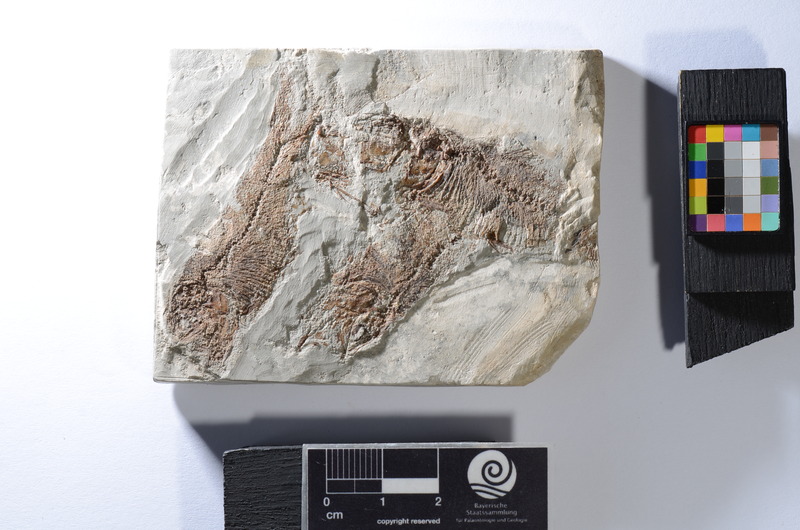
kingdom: Animalia
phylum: Chordata
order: Clupeiformes
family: Clupeidae
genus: Clupea
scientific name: Clupea ventricosa
